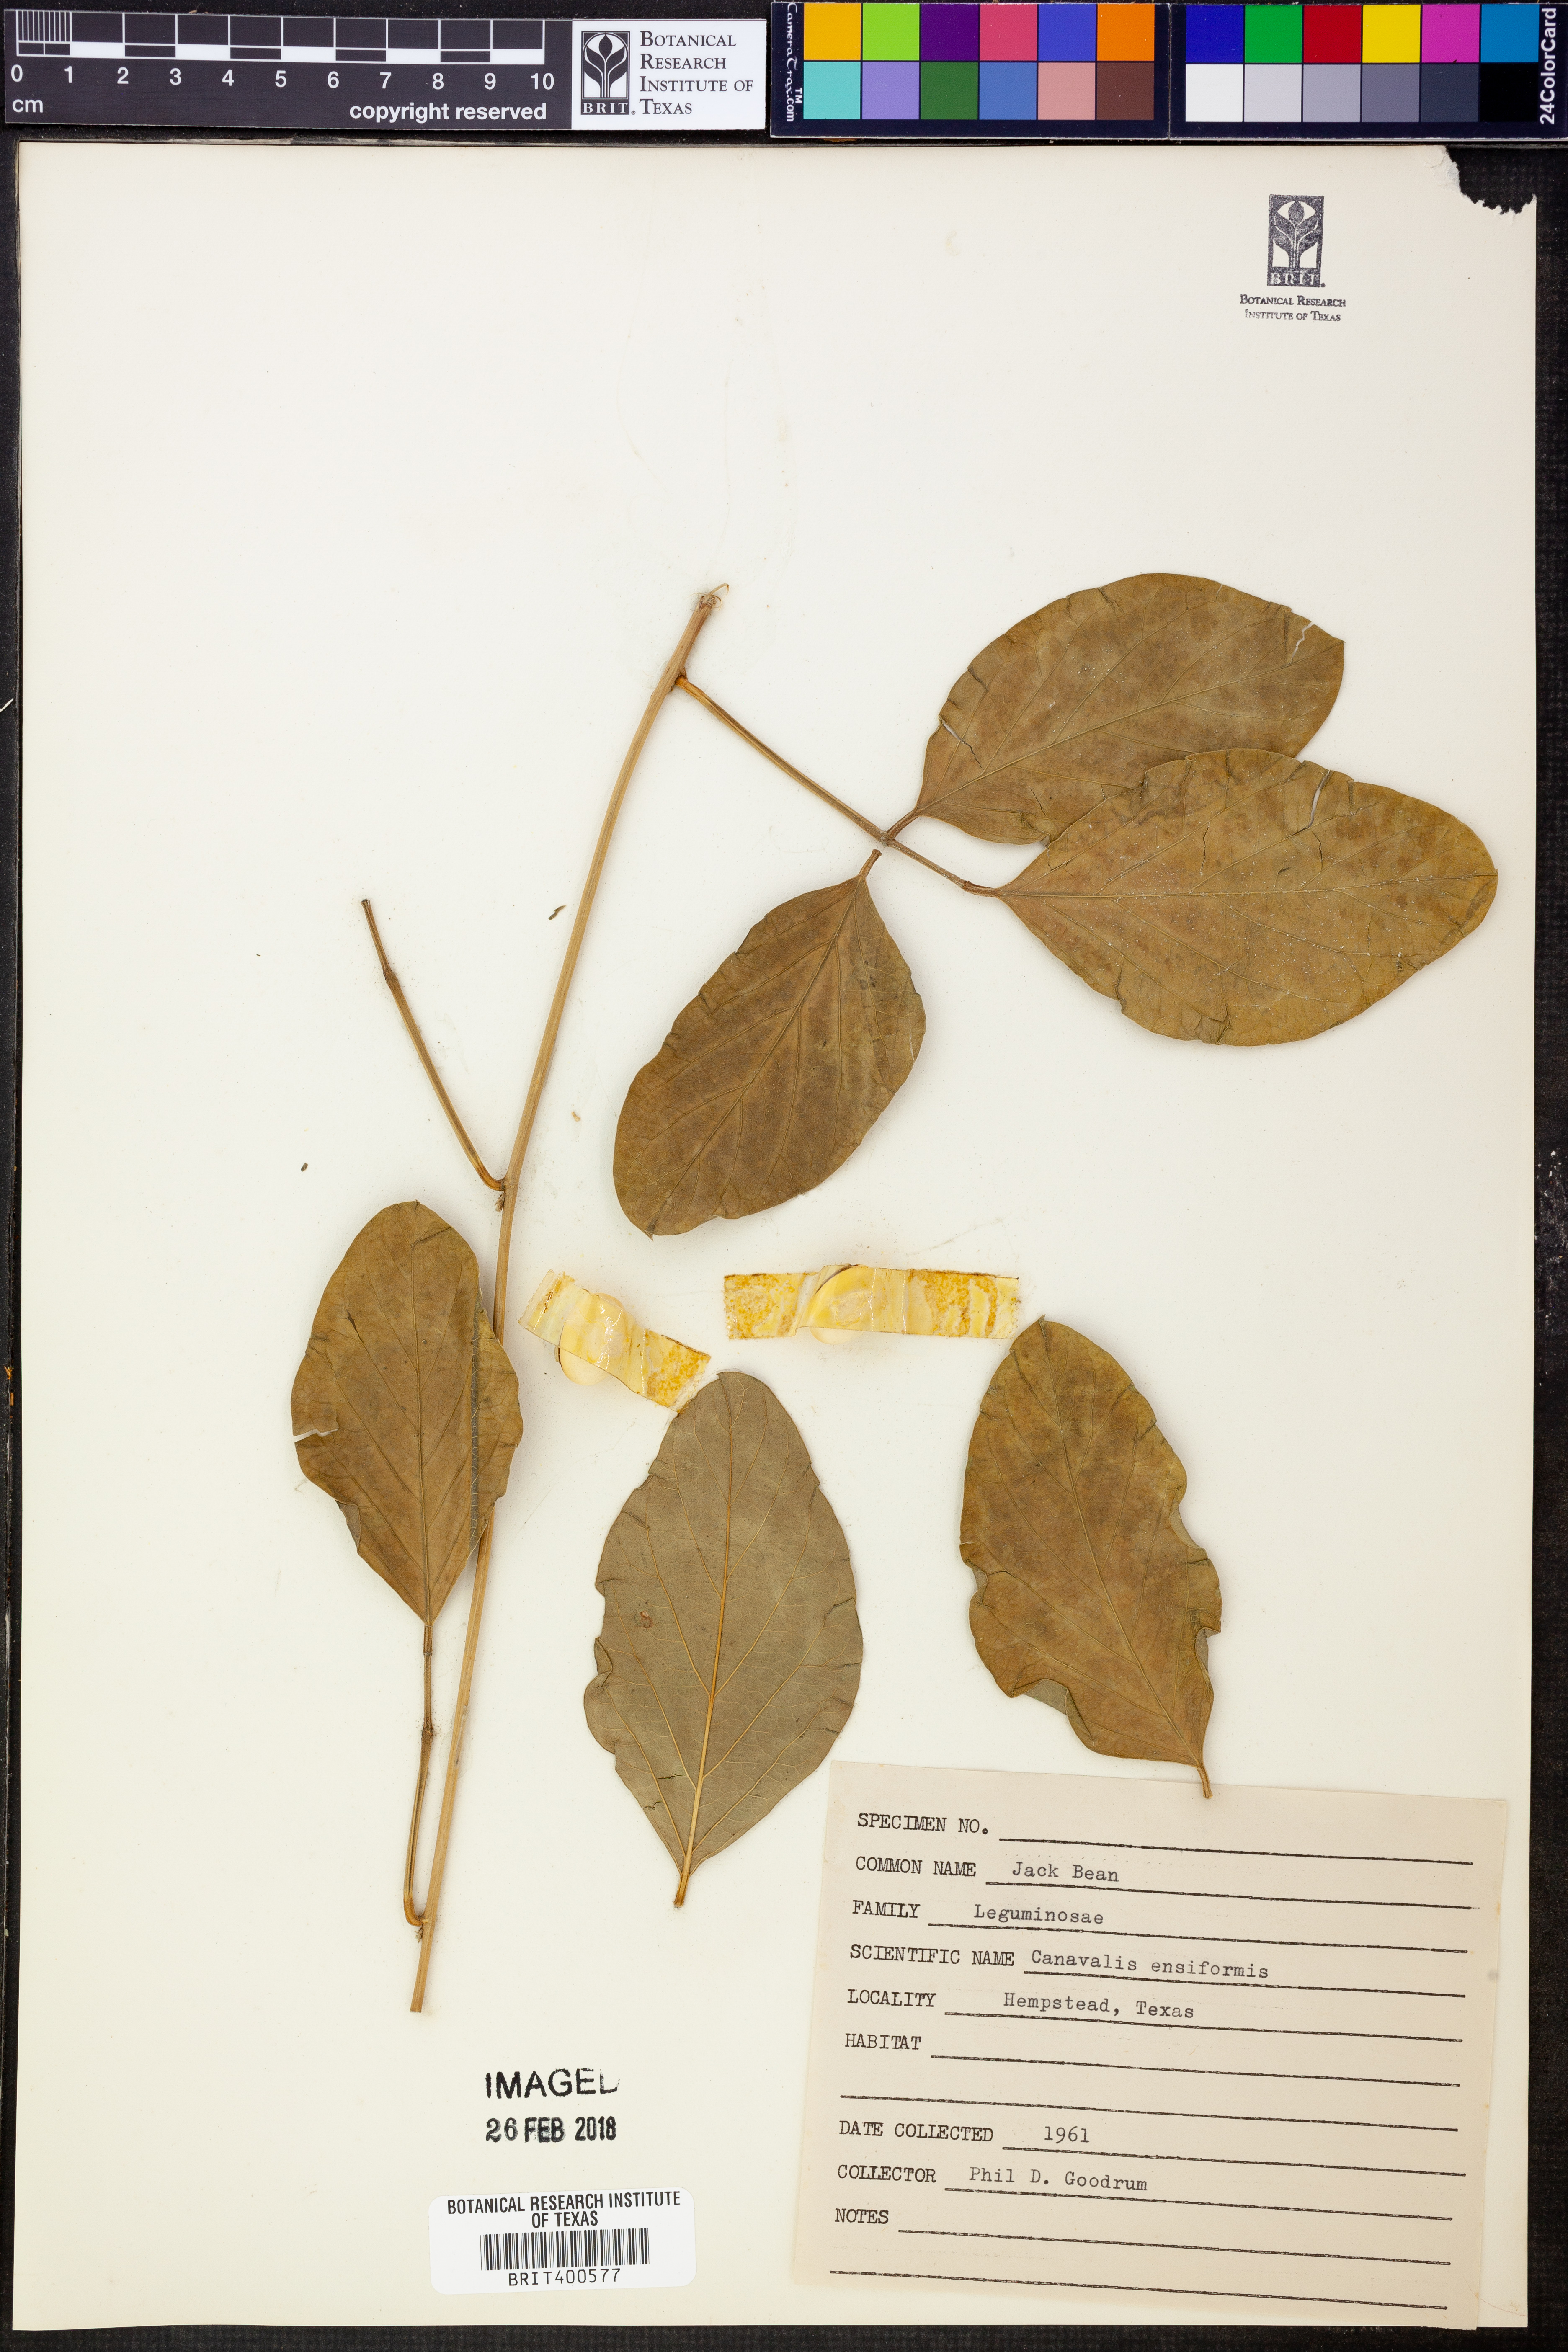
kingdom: Plantae
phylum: Tracheophyta
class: Magnoliopsida
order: Fabales
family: Fabaceae
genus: Canavalia
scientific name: Canavalia ensiformis
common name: Jack bean
